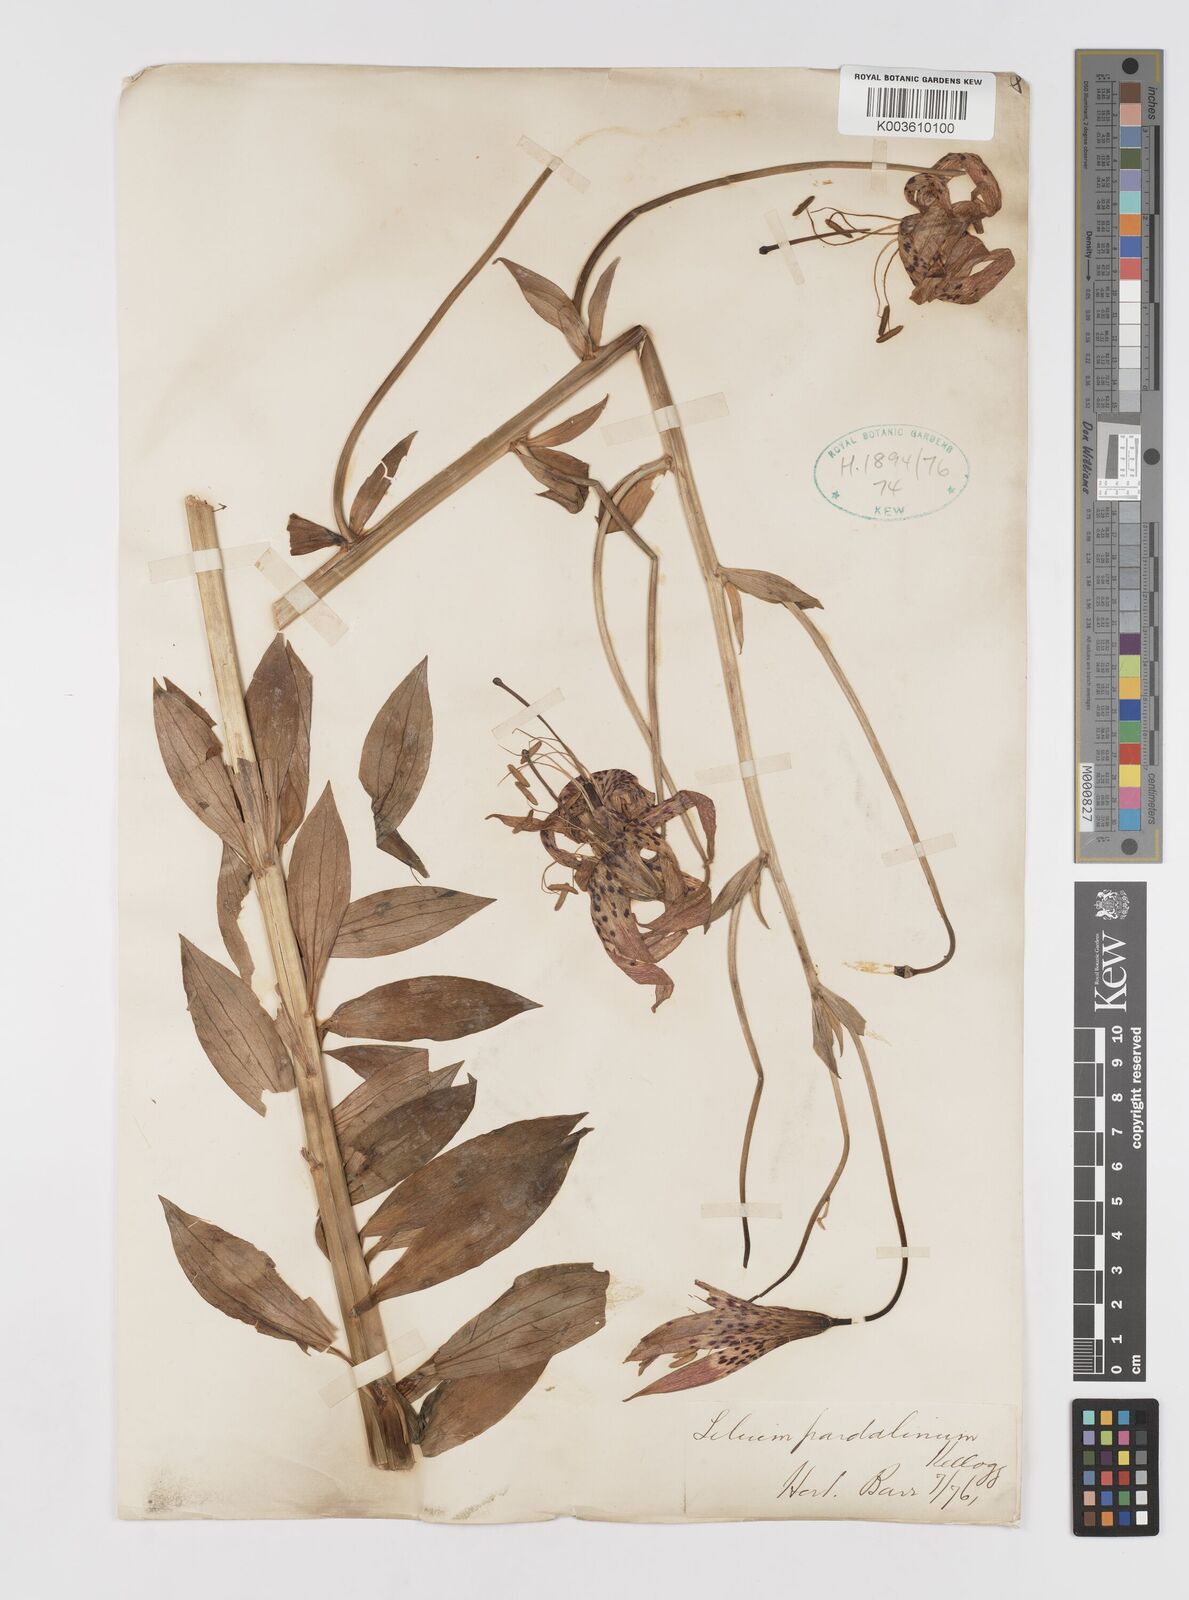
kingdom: Plantae
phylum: Tracheophyta
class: Liliopsida
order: Liliales
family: Liliaceae
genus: Lilium
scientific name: Lilium pardalinum
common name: Panther lily
